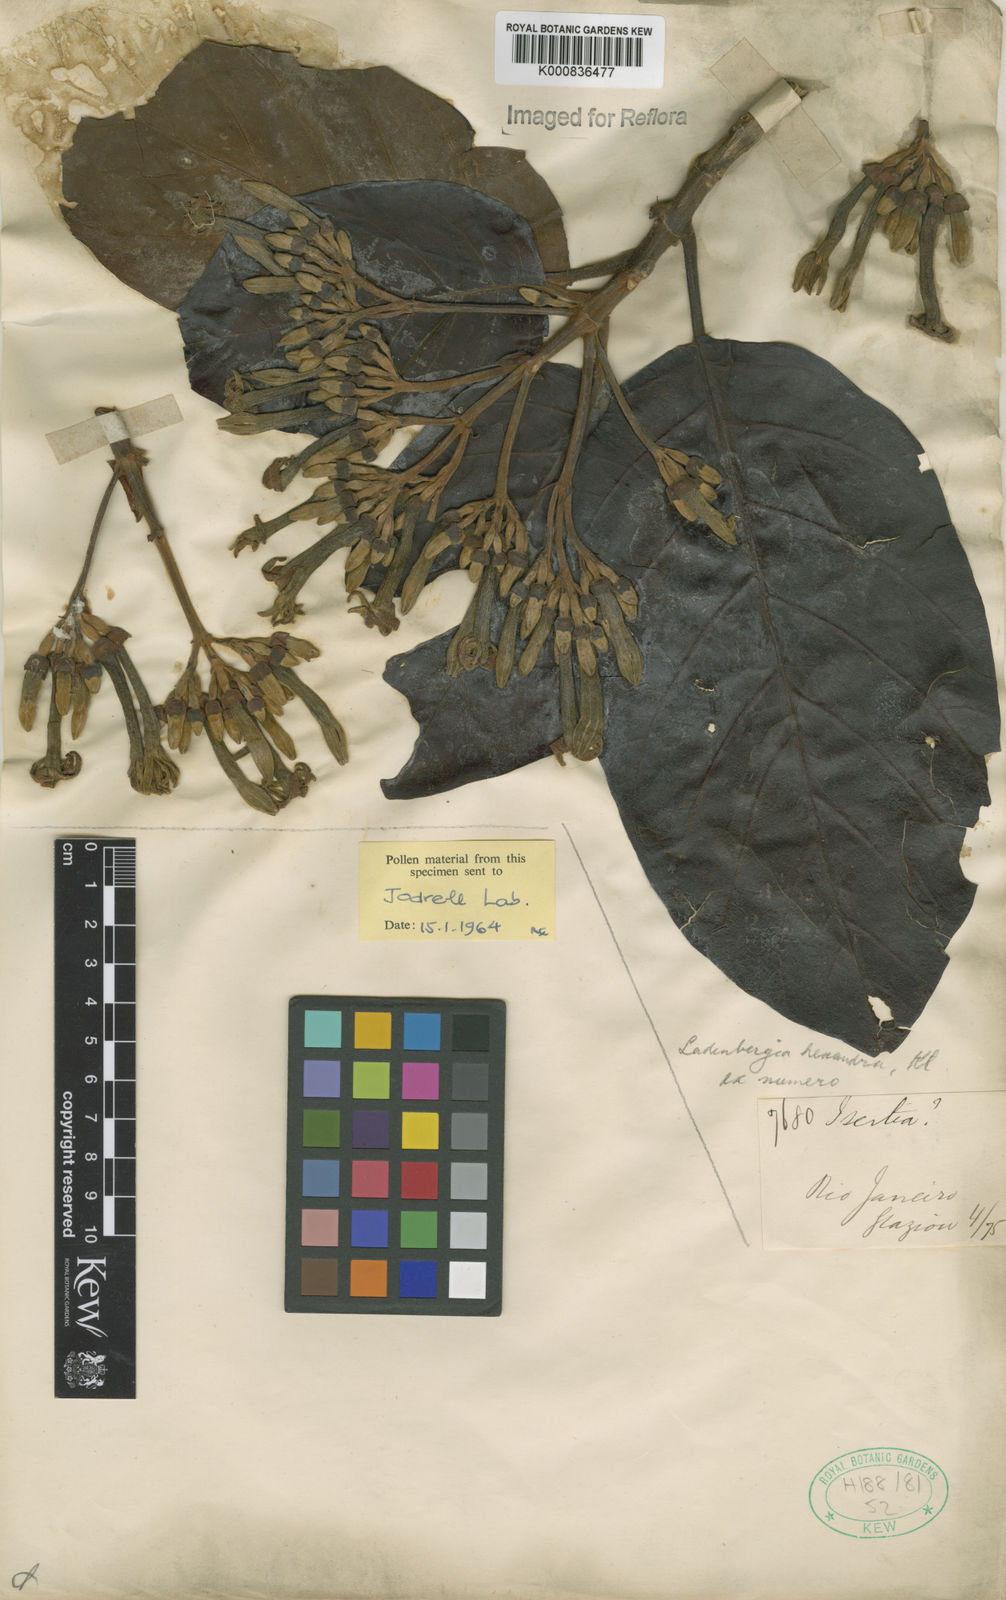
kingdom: Plantae
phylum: Tracheophyta
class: Magnoliopsida
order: Gentianales
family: Rubiaceae
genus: Ladenbergia
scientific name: Ladenbergia hexandra
